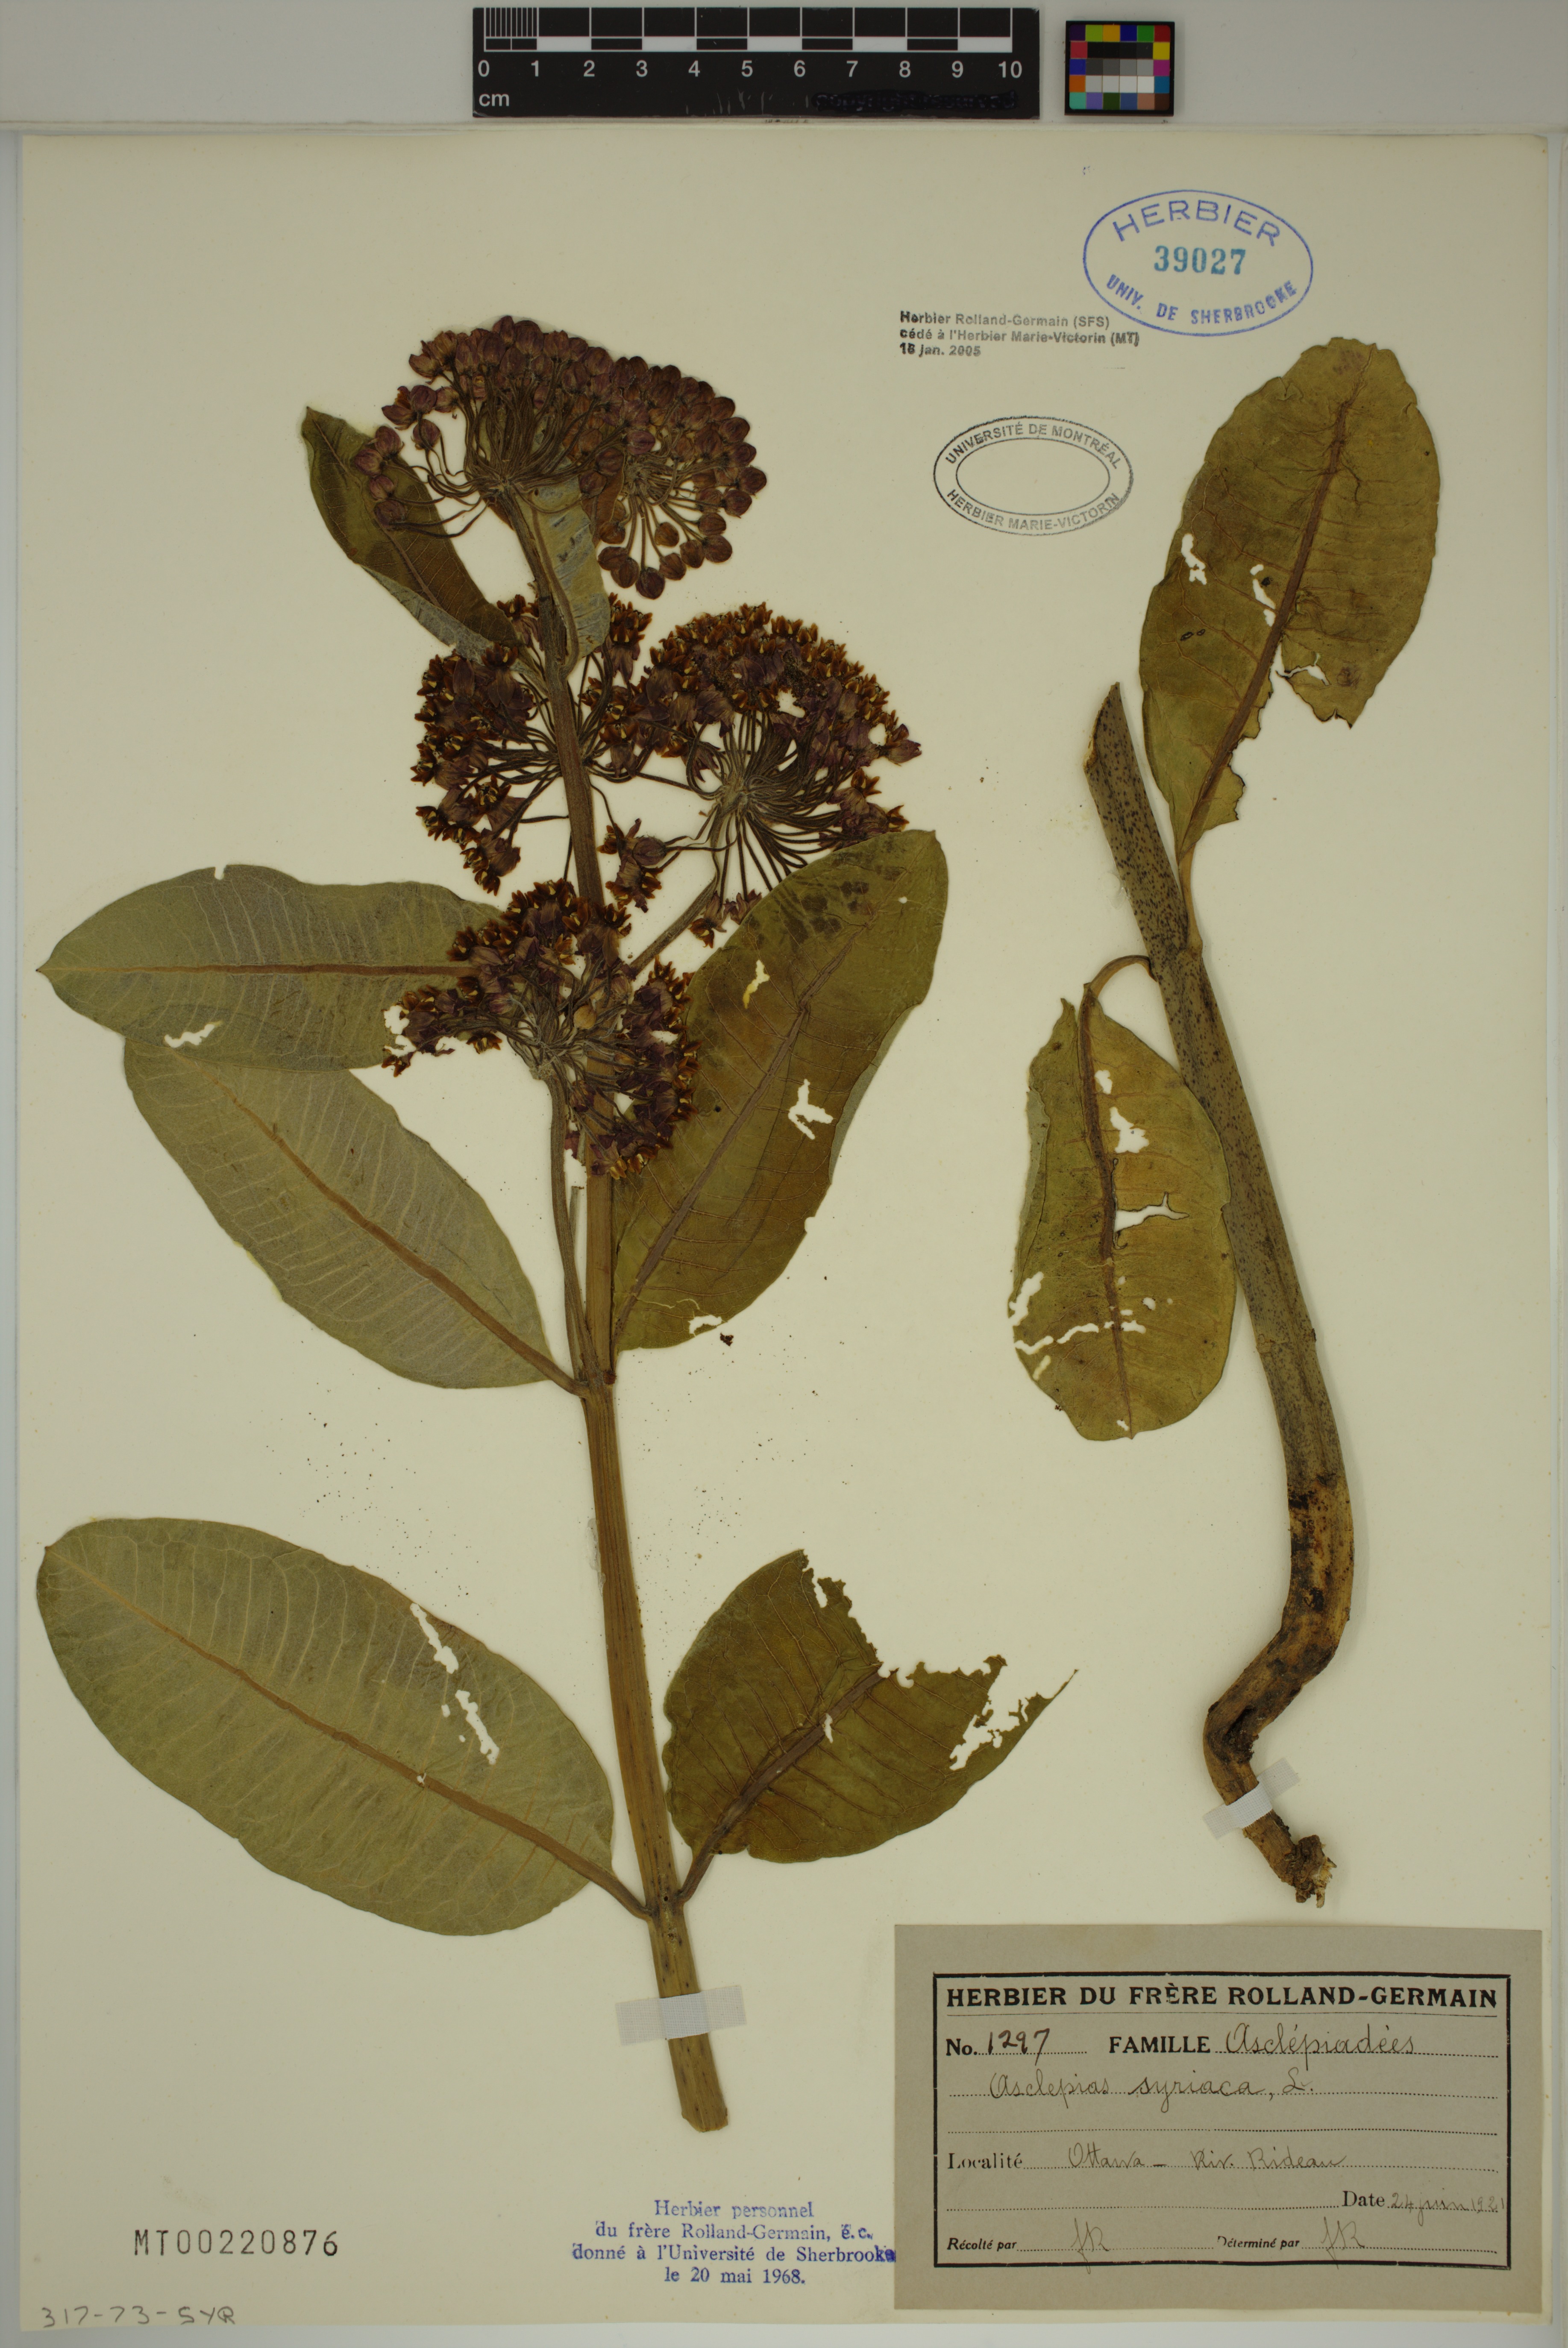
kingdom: Plantae
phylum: Tracheophyta
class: Magnoliopsida
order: Gentianales
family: Apocynaceae
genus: Asclepias
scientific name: Asclepias syriaca
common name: Common milkweed
